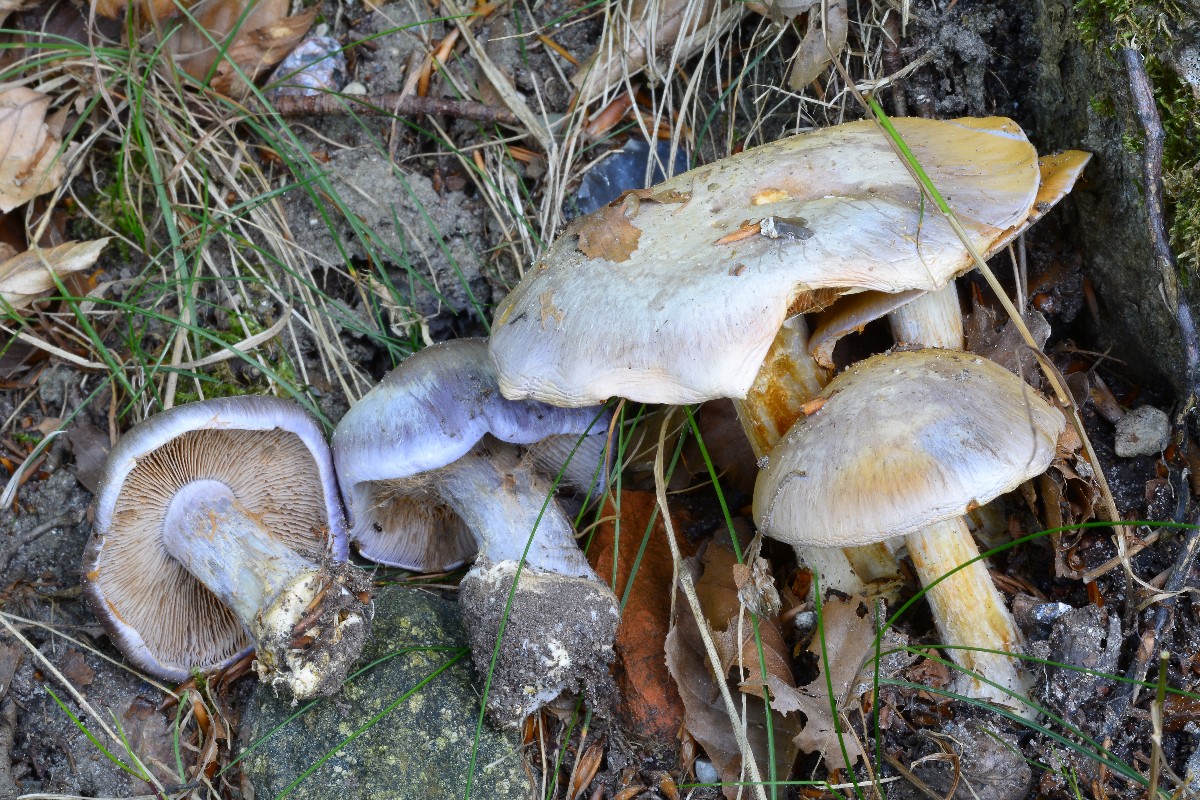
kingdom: Fungi
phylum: Basidiomycota
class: Agaricomycetes
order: Agaricales
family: Cortinariaceae
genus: Cortinarius
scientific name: Cortinarius caerulescens
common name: blåkødet slørhat
